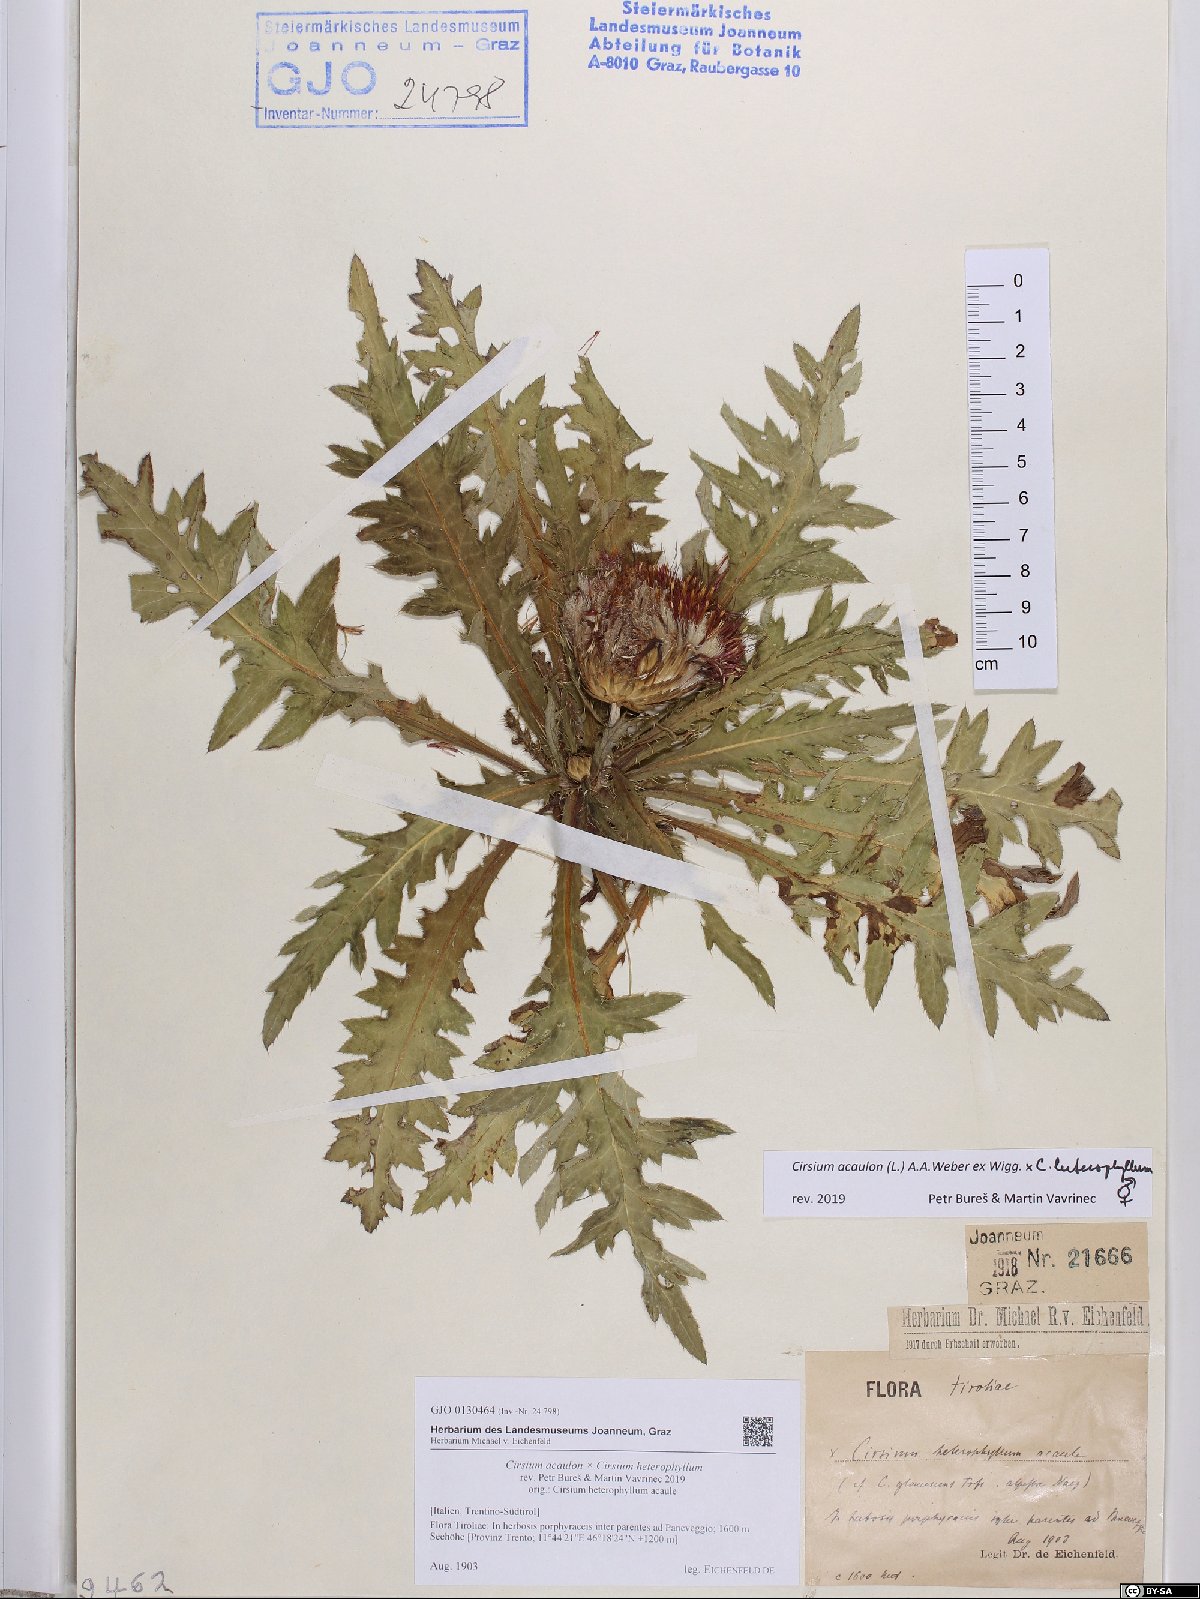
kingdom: Plantae
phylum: Tracheophyta
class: Magnoliopsida
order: Asterales
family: Asteraceae
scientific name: Asteraceae
